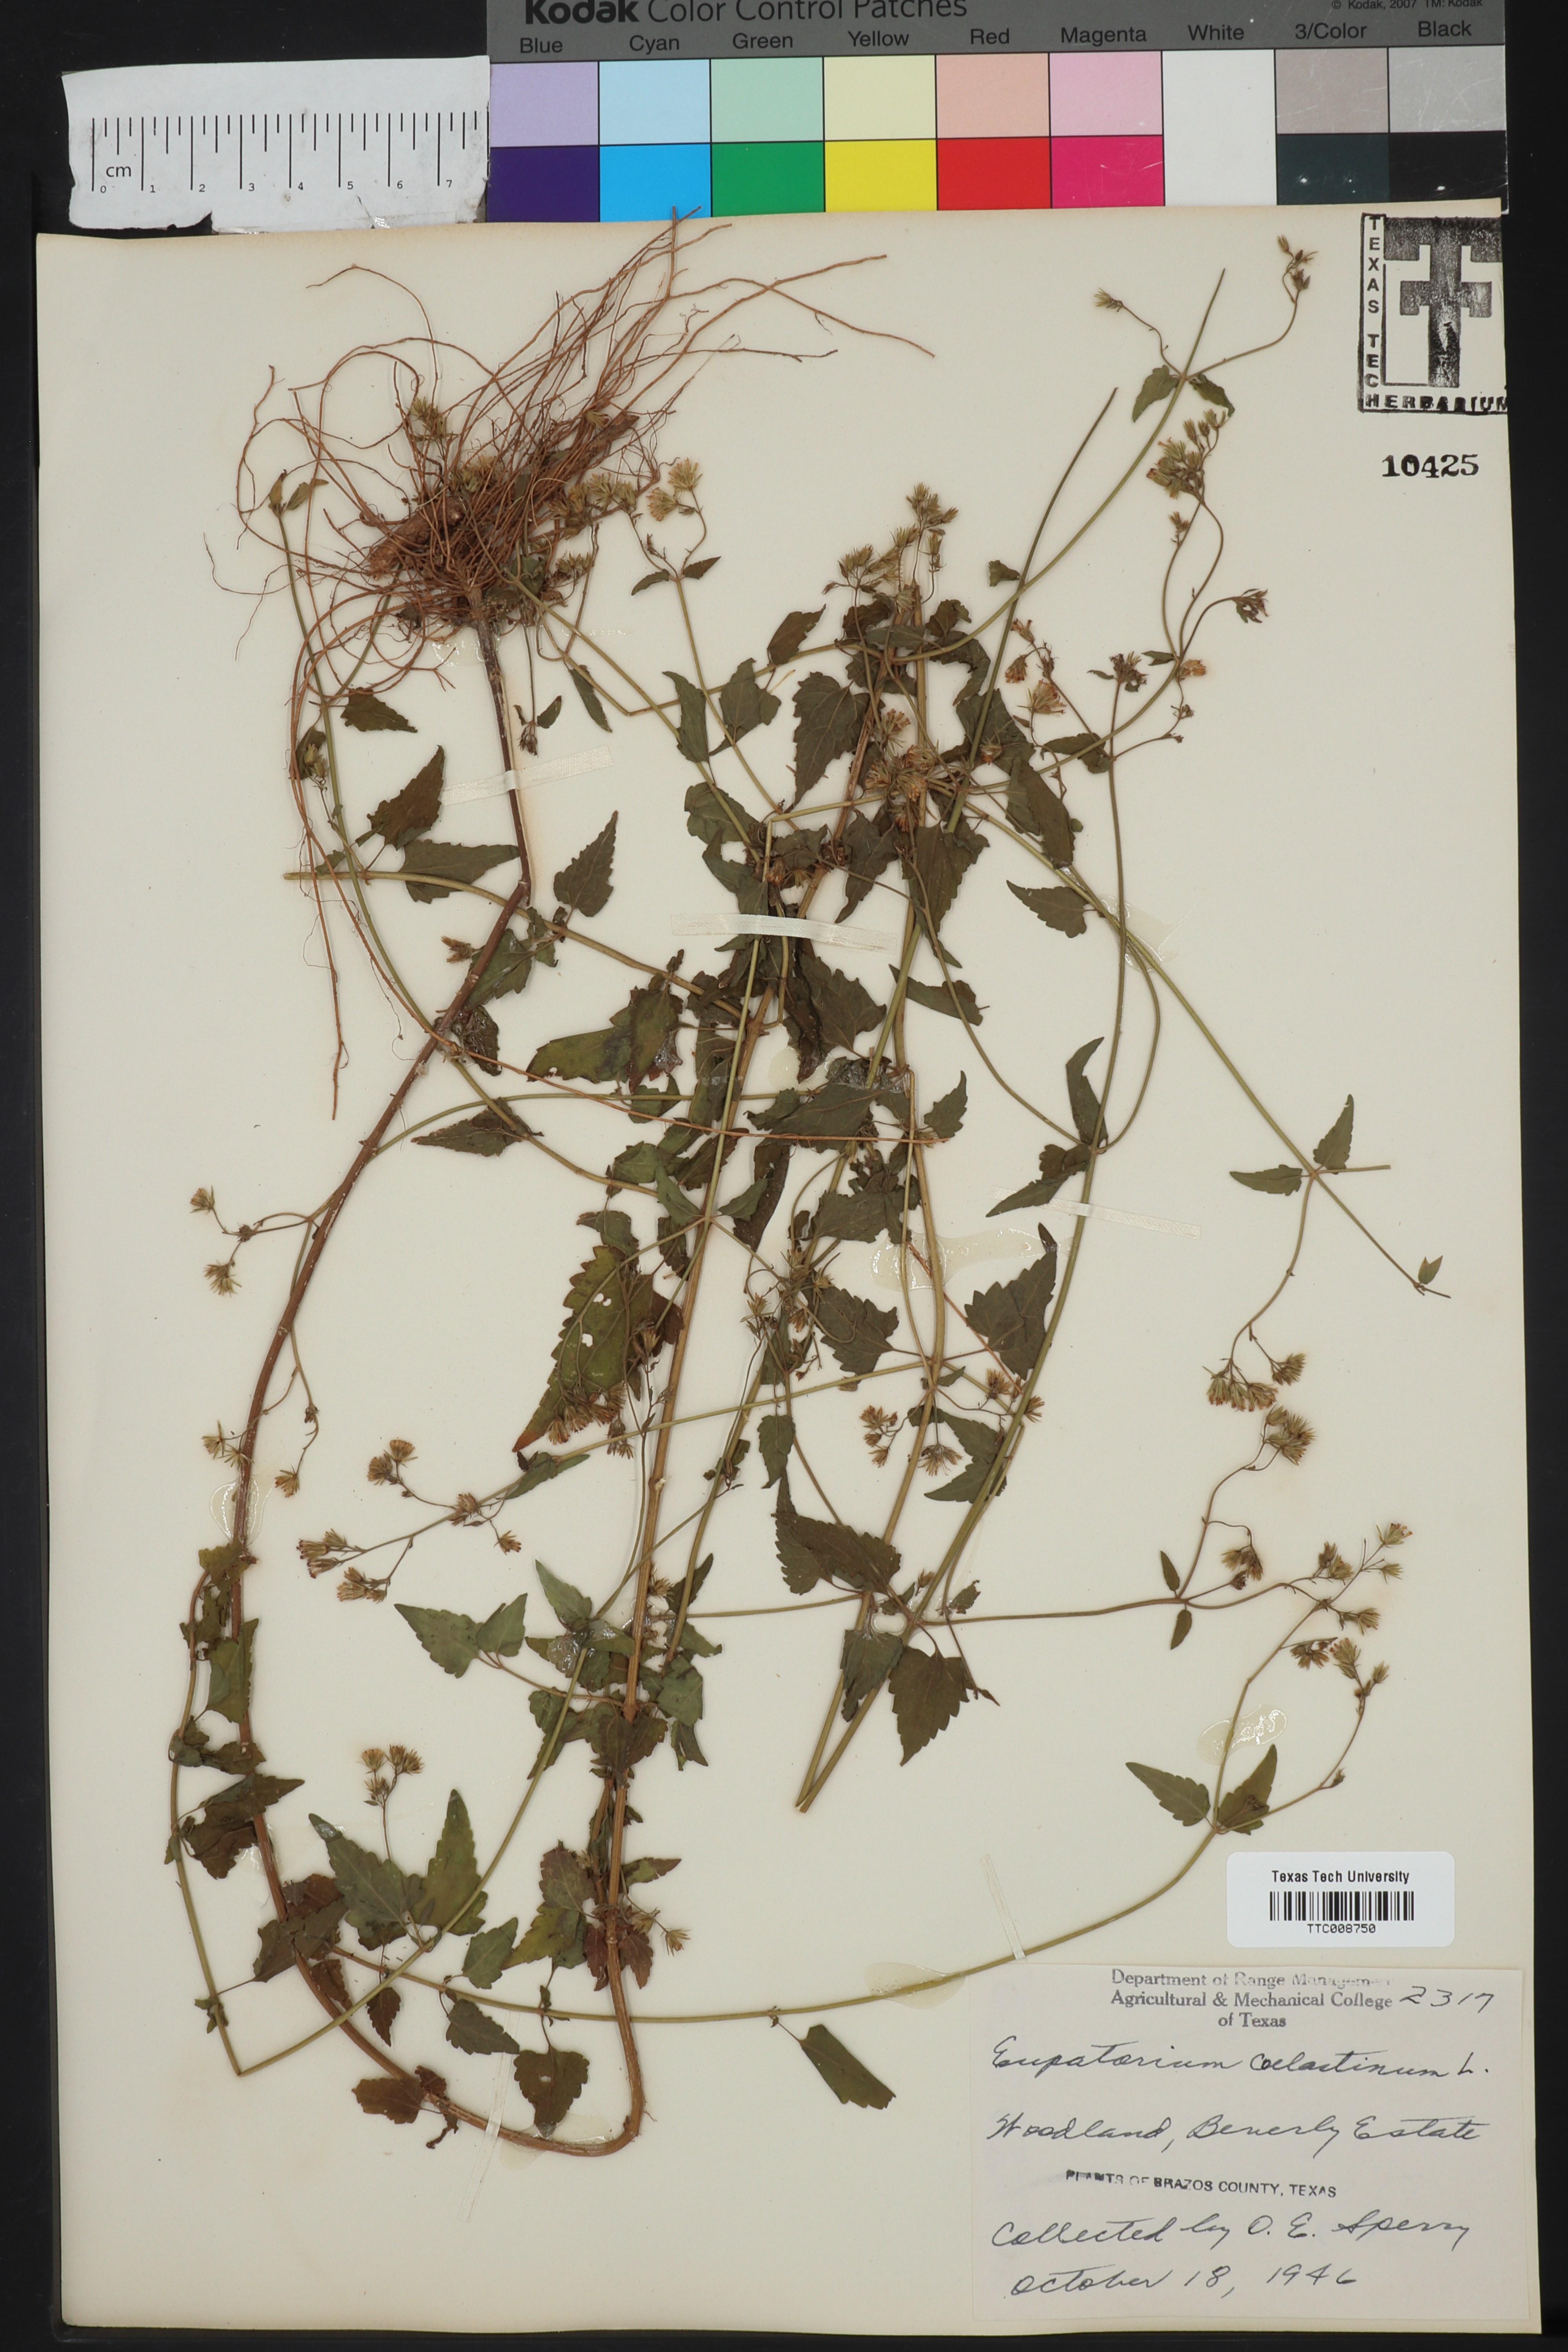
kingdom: Plantae
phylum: Tracheophyta
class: Magnoliopsida
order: Asterales
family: Asteraceae
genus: Eupatorium
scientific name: Eupatorium coelestinum
